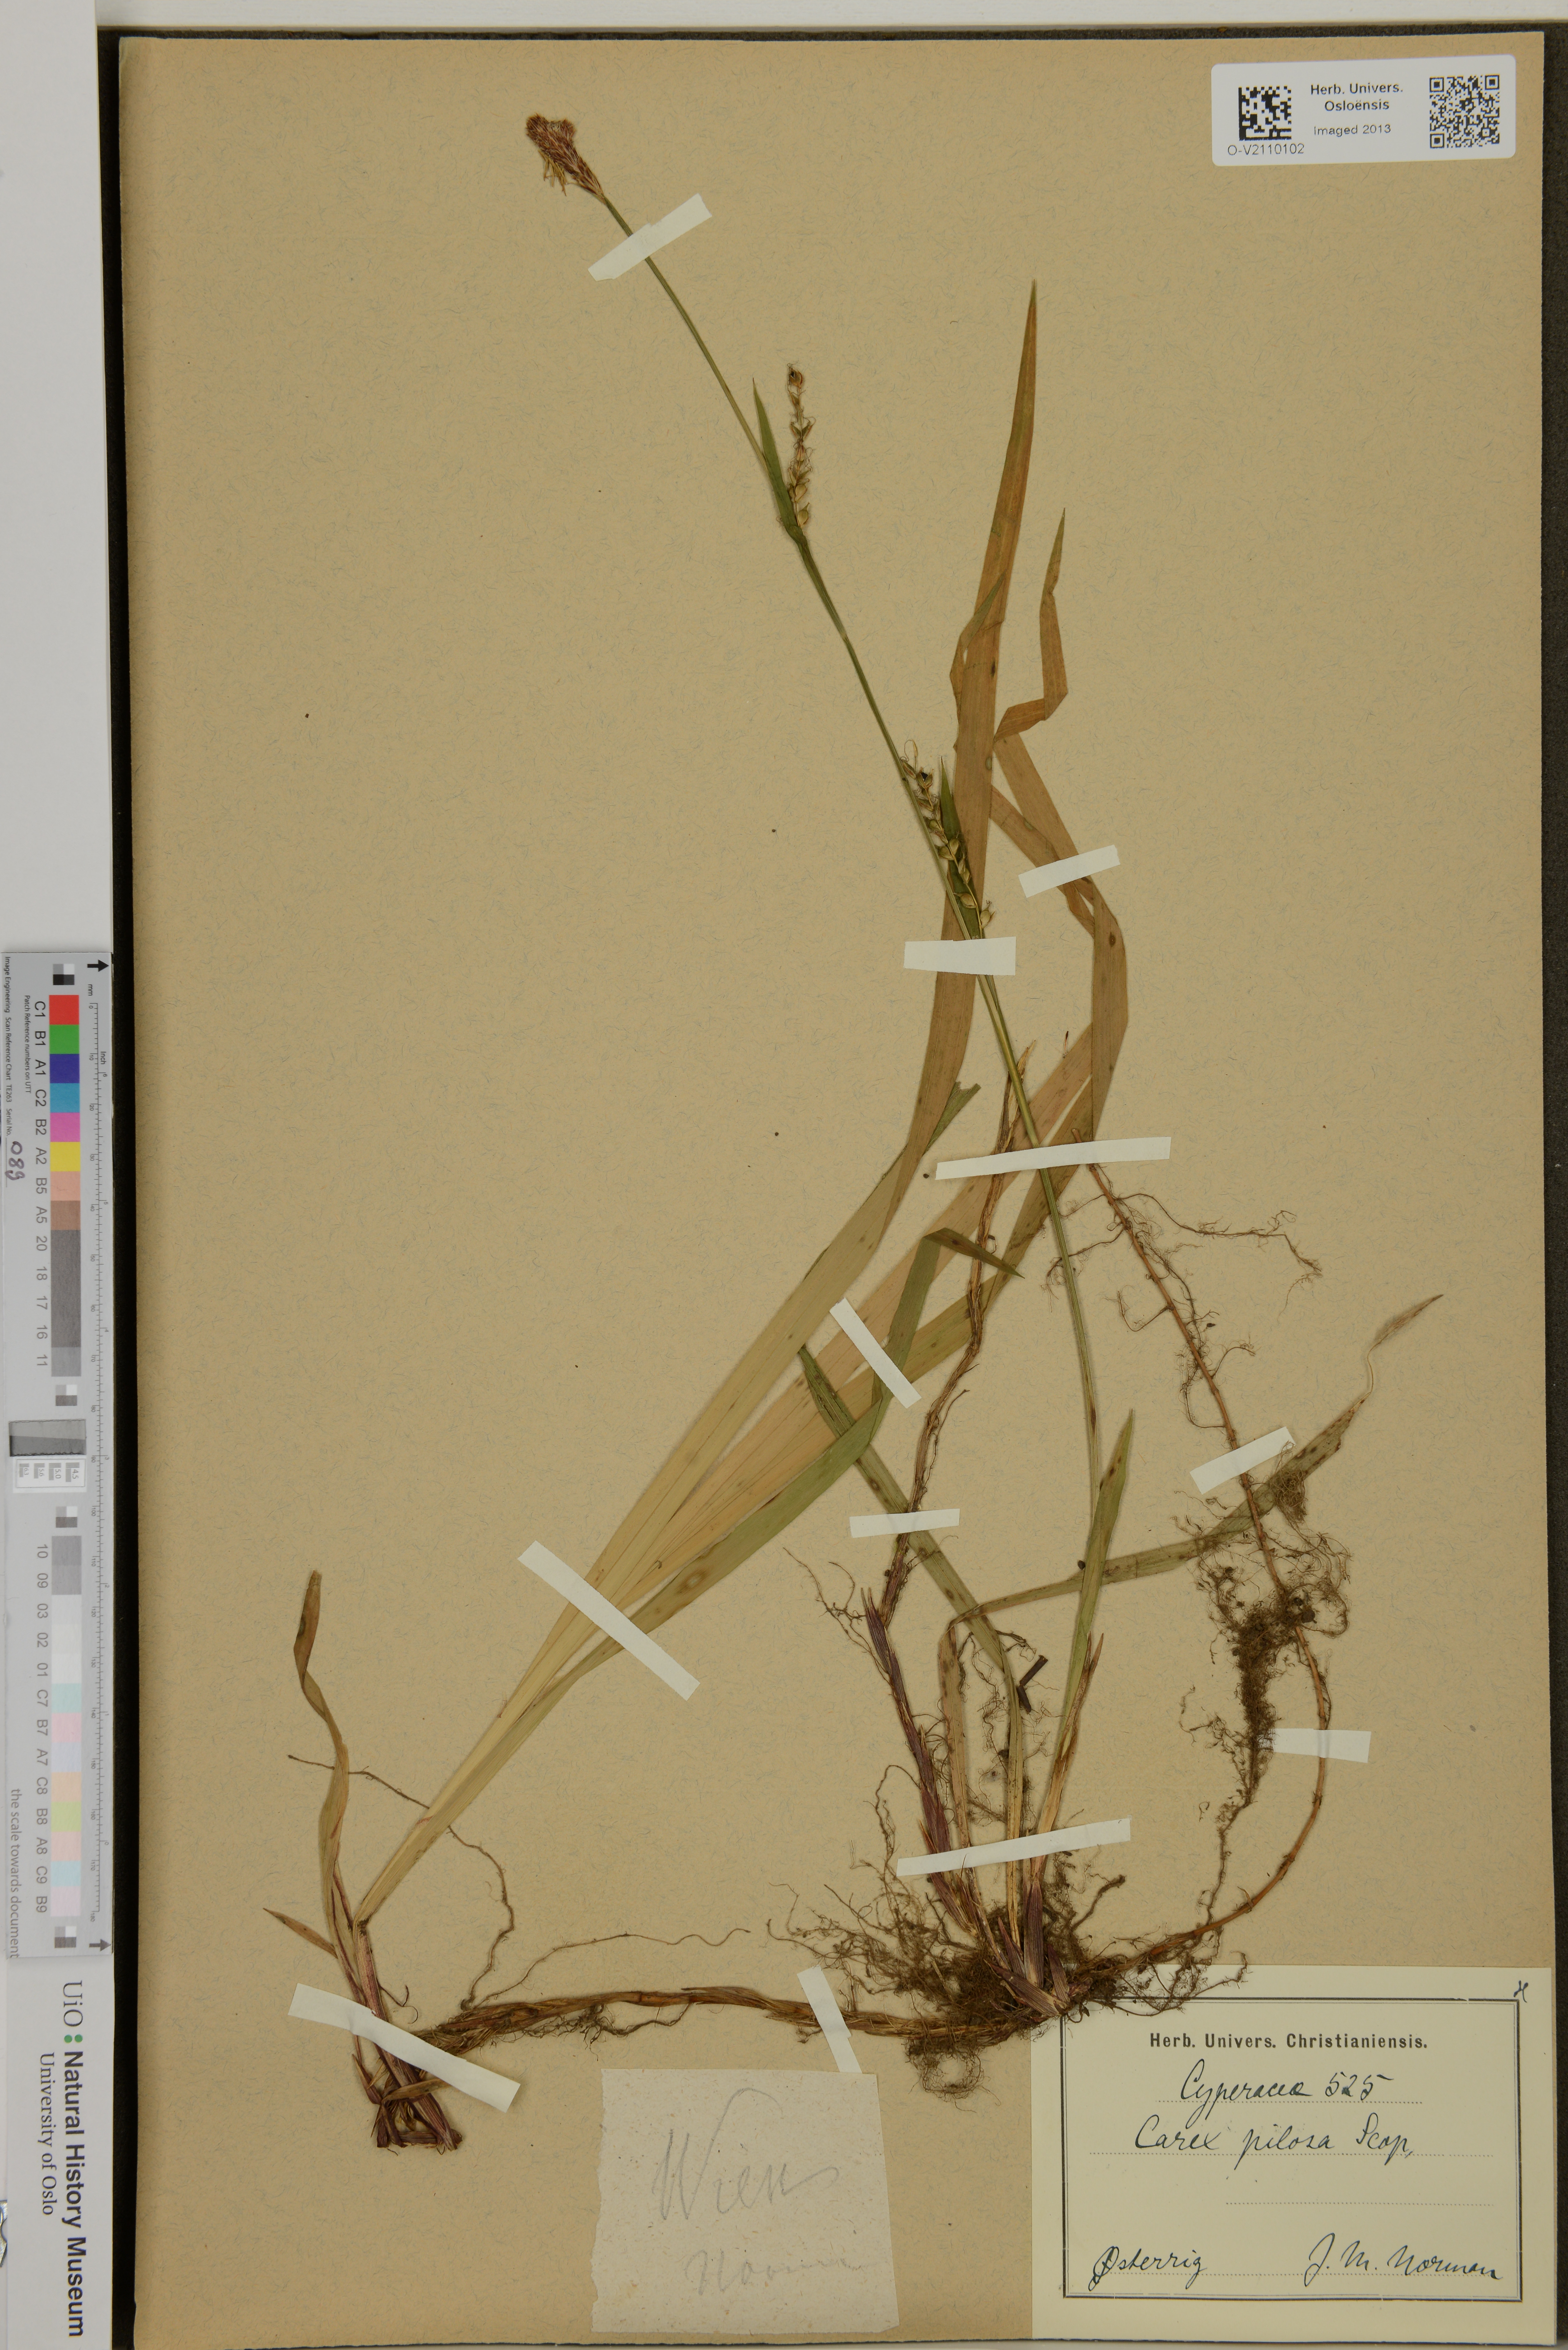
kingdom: Plantae
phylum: Tracheophyta
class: Liliopsida
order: Poales
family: Cyperaceae
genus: Carex
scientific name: Carex pilosa
